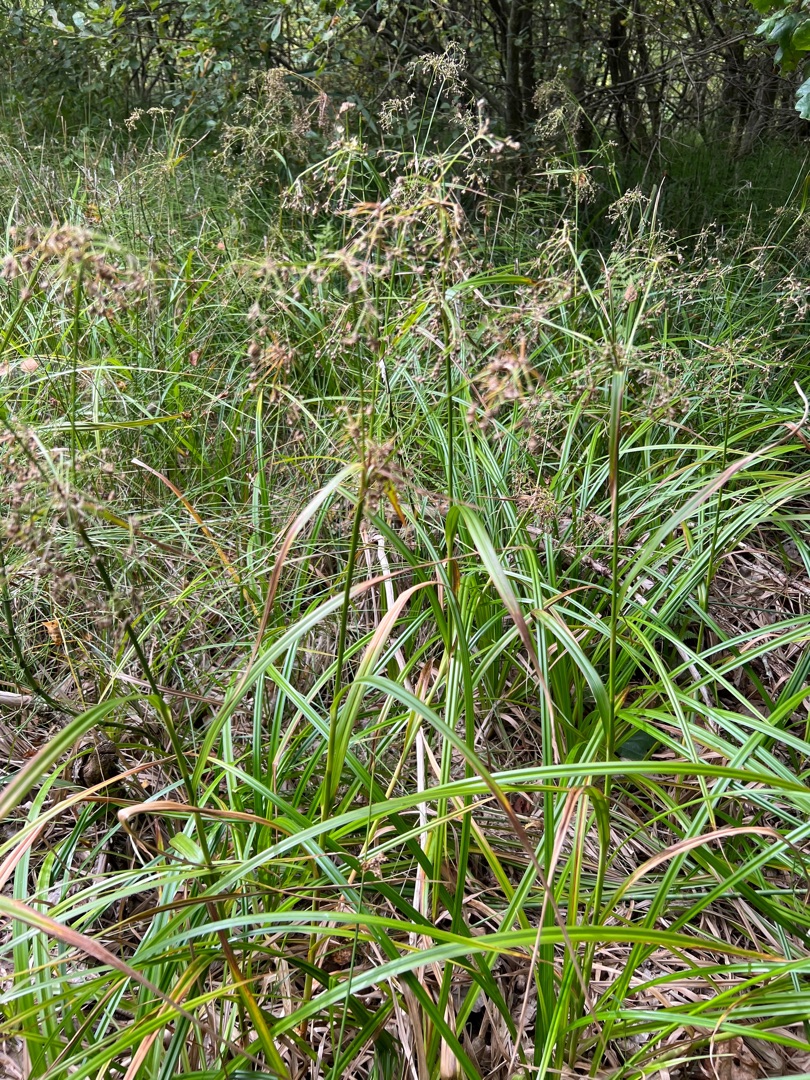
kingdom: Plantae
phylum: Tracheophyta
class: Liliopsida
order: Poales
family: Cyperaceae
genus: Scirpus
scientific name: Scirpus sylvaticus
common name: Skov-kogleaks
